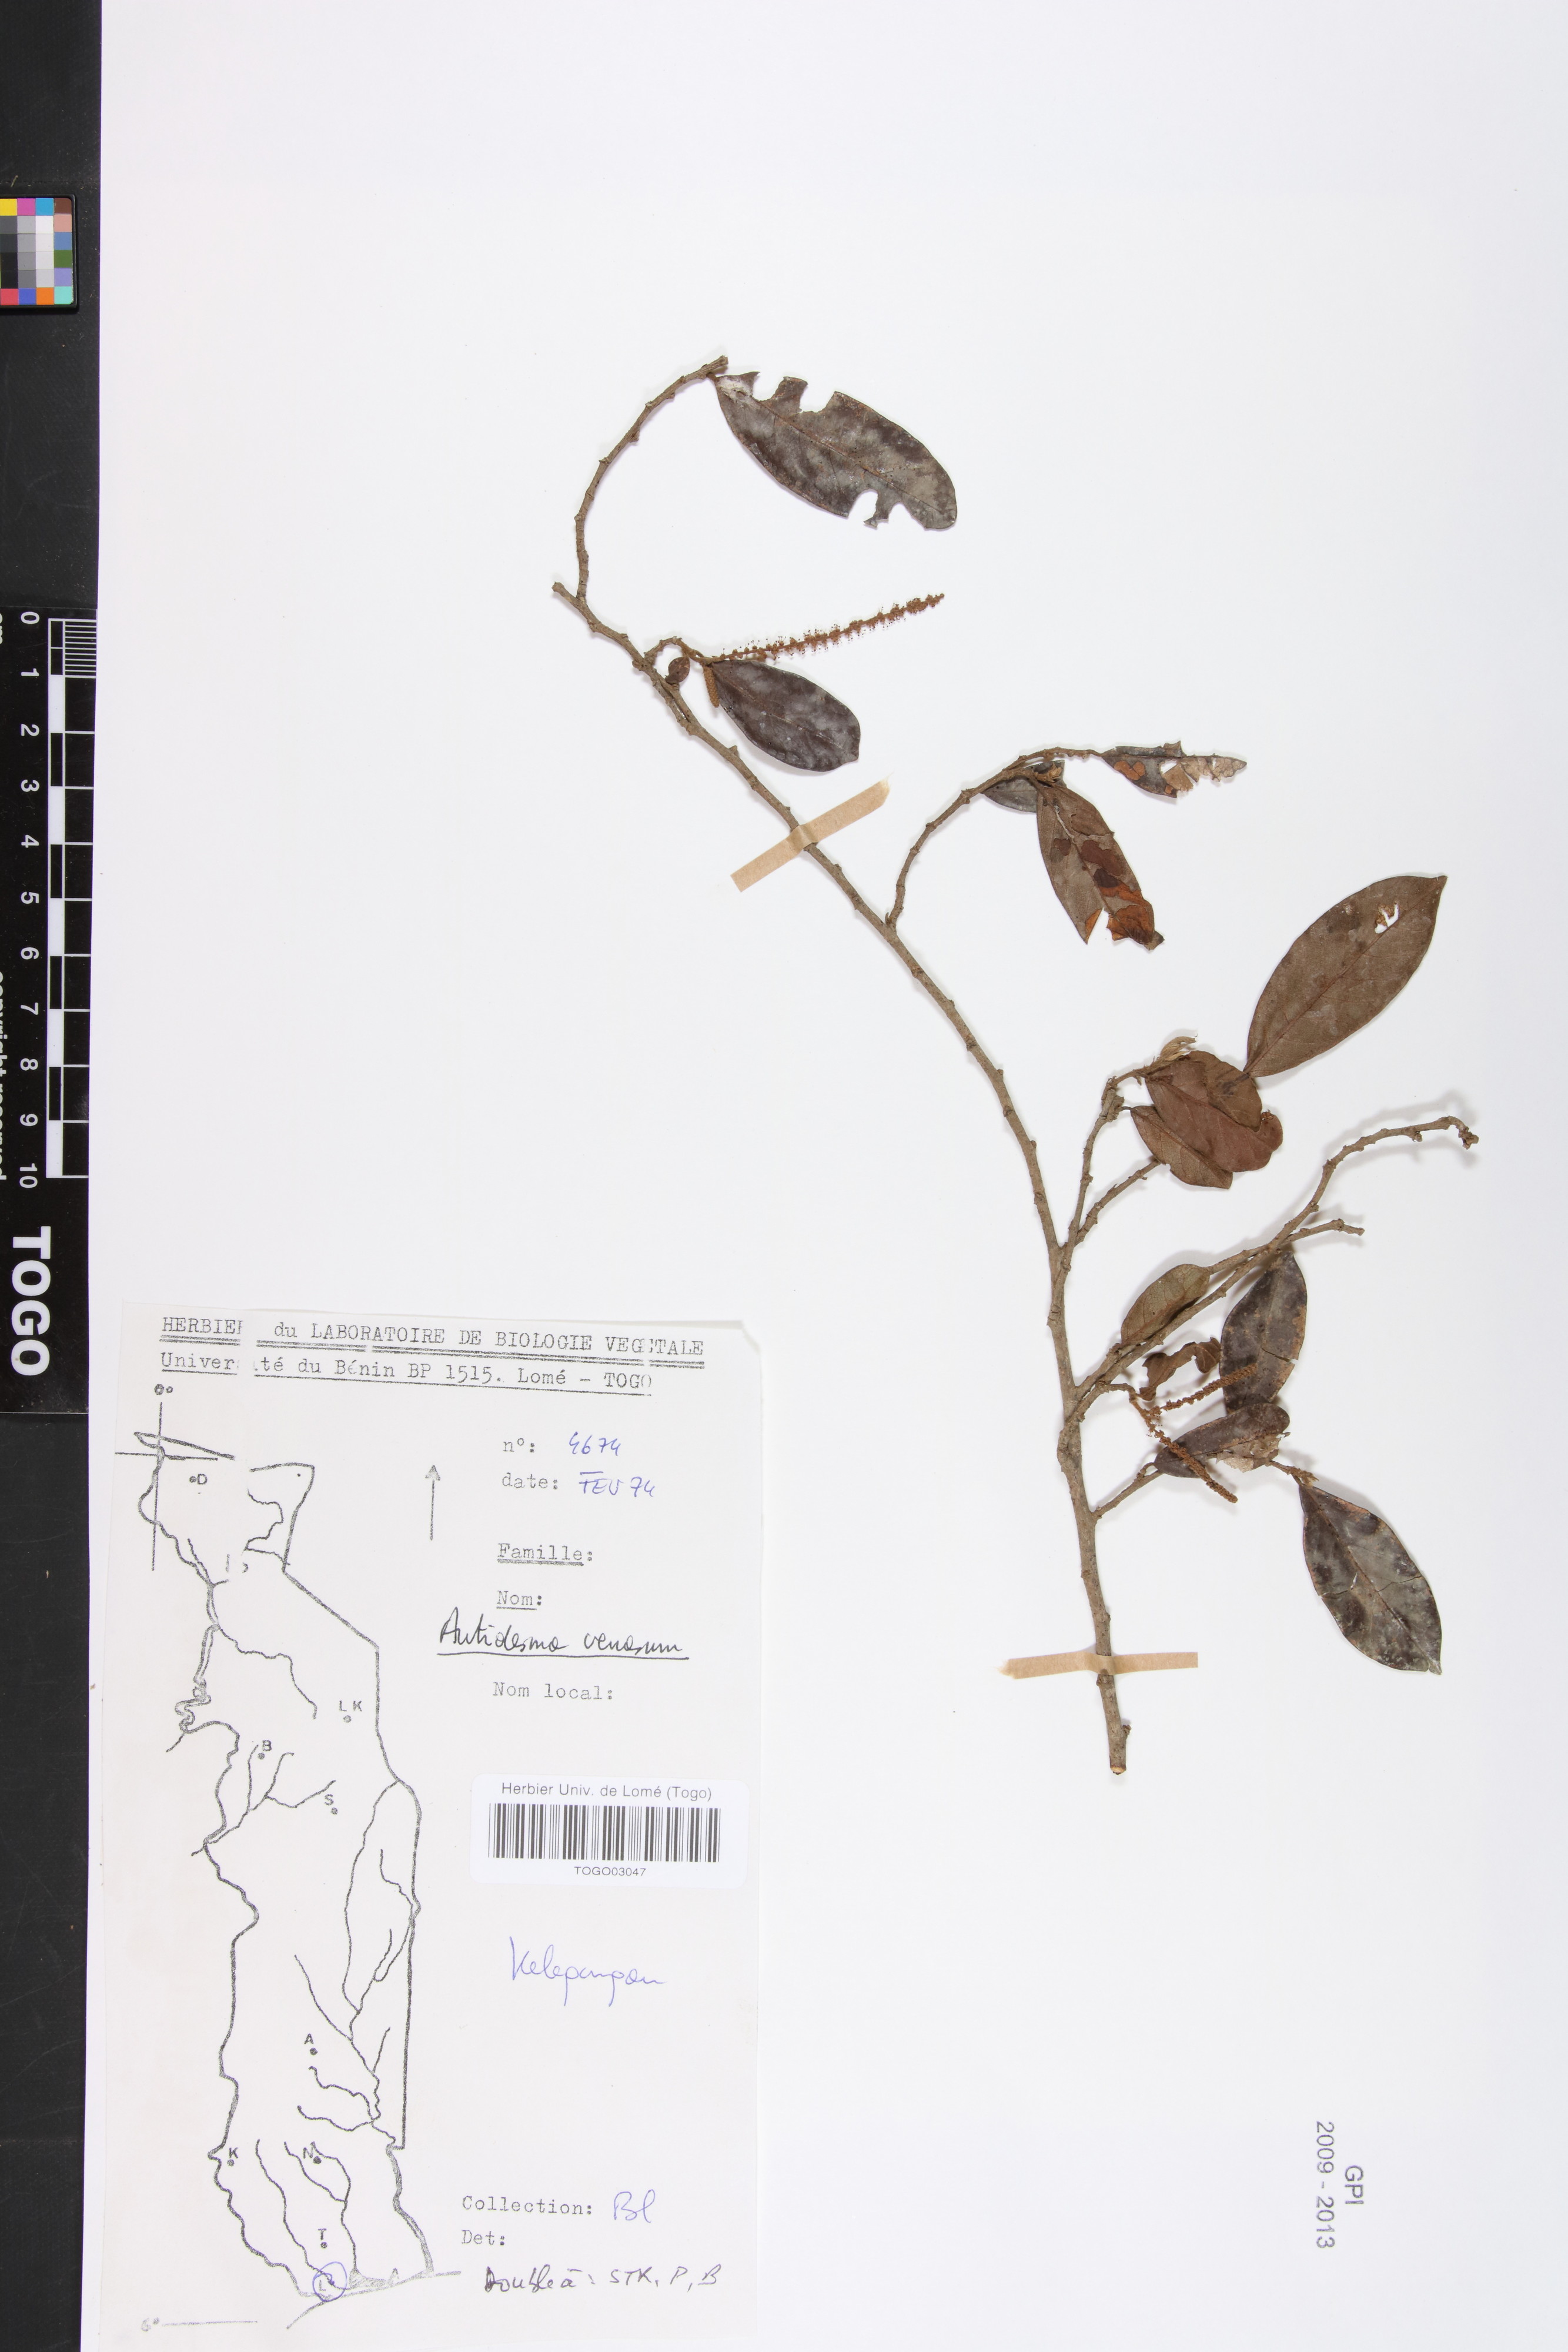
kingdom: Plantae
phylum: Tracheophyta
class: Magnoliopsida
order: Malpighiales
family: Phyllanthaceae
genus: Antidesma
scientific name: Antidesma venosum
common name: Tassel-berry
